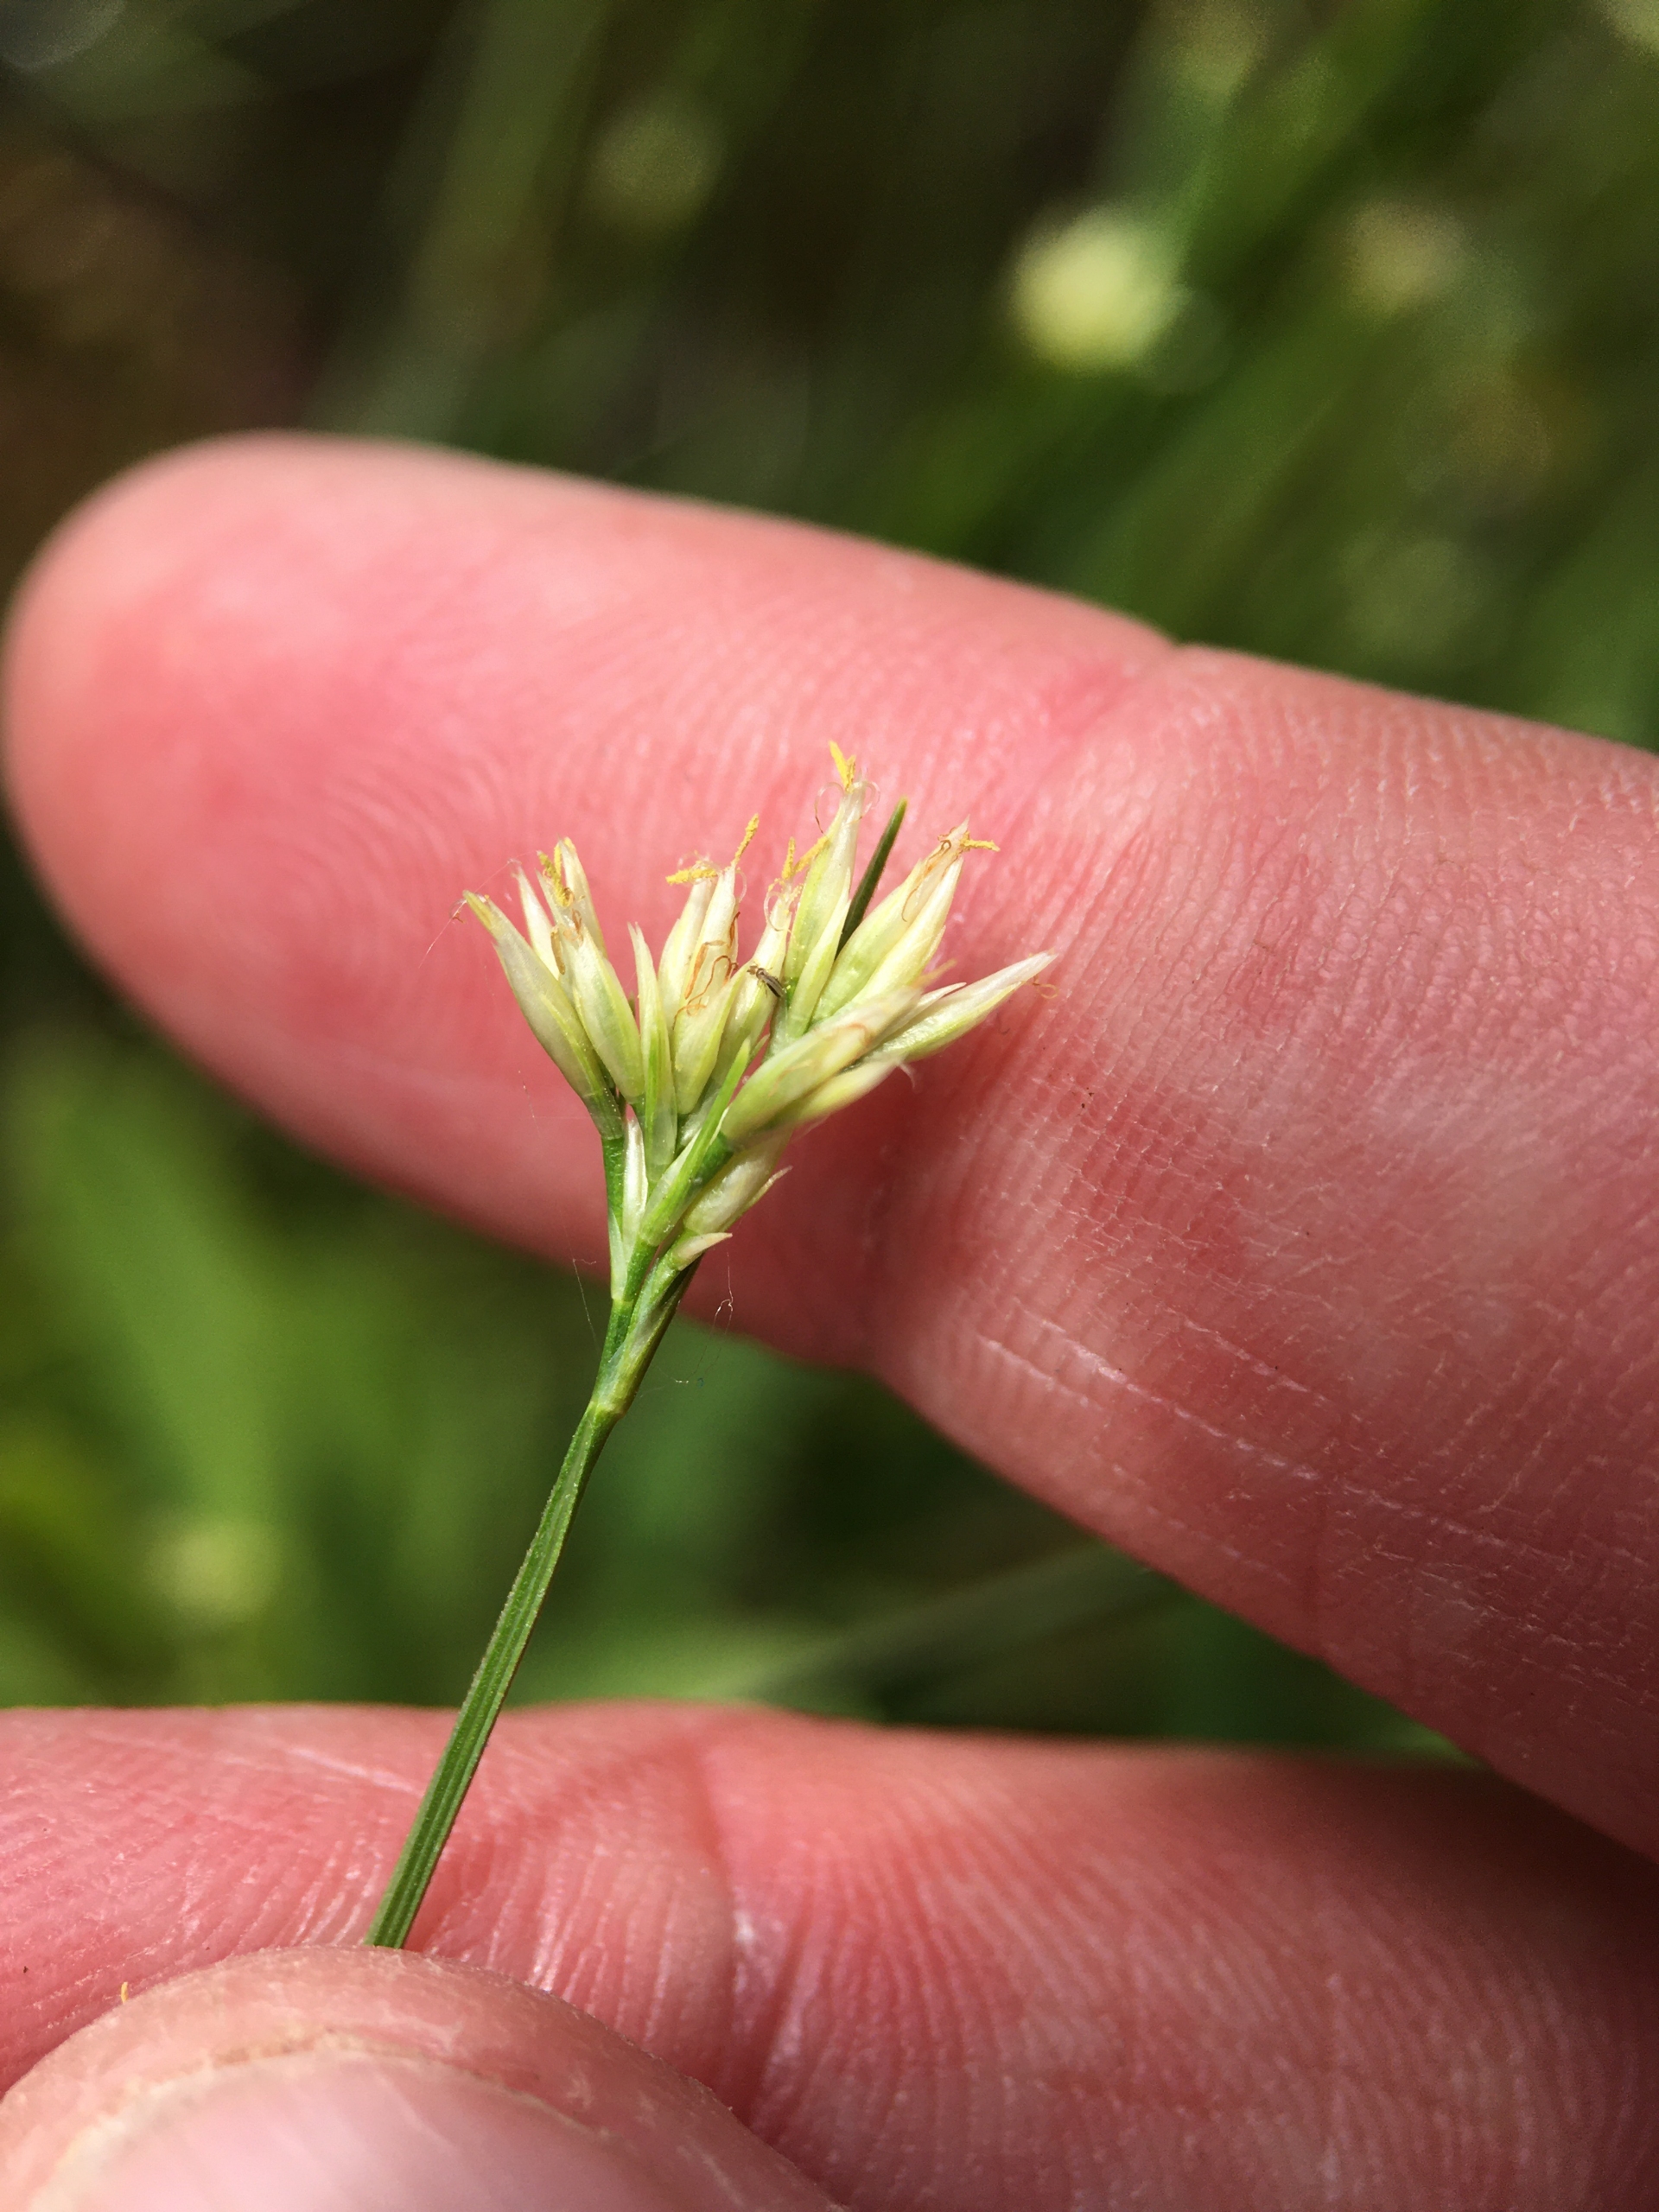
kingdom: Plantae
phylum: Tracheophyta
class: Liliopsida
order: Poales
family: Cyperaceae
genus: Rhynchospora
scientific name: Rhynchospora alba
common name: Hvid næbfrø
